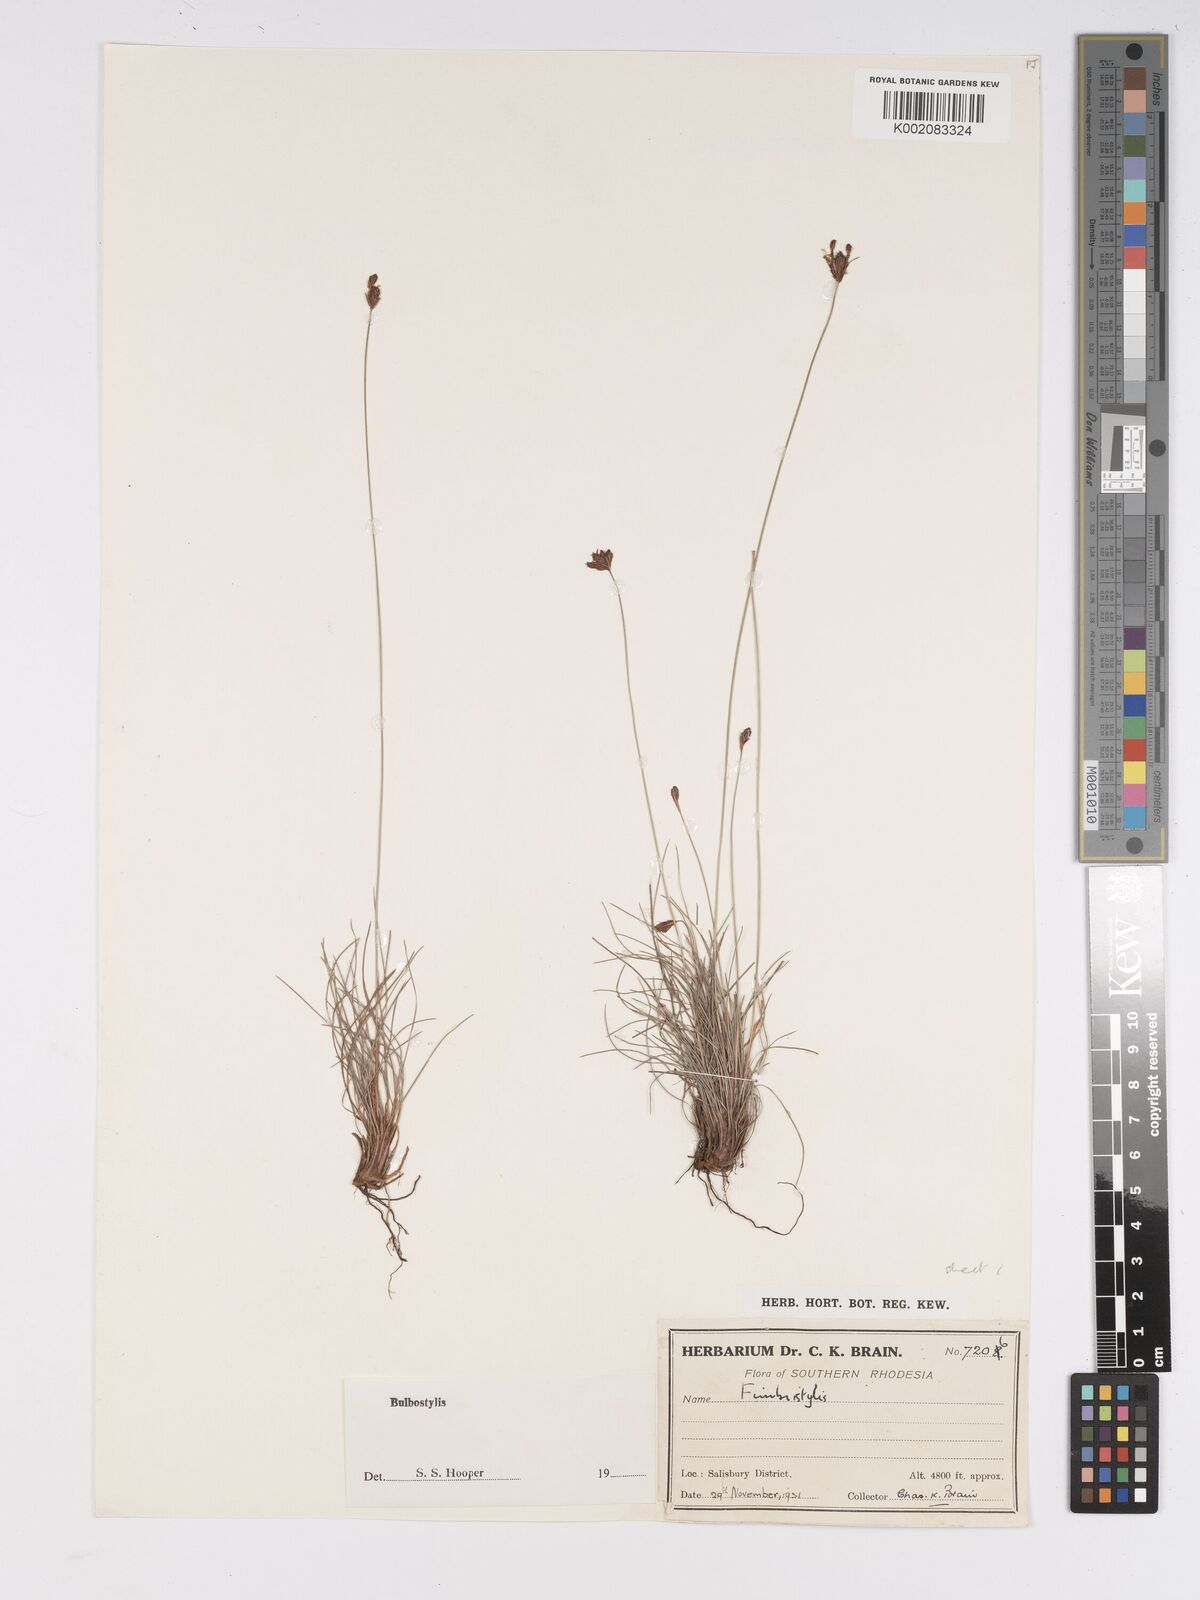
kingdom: Plantae
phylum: Tracheophyta
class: Liliopsida
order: Poales
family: Cyperaceae
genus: Bulbostylis
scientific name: Bulbostylis schoenoides
